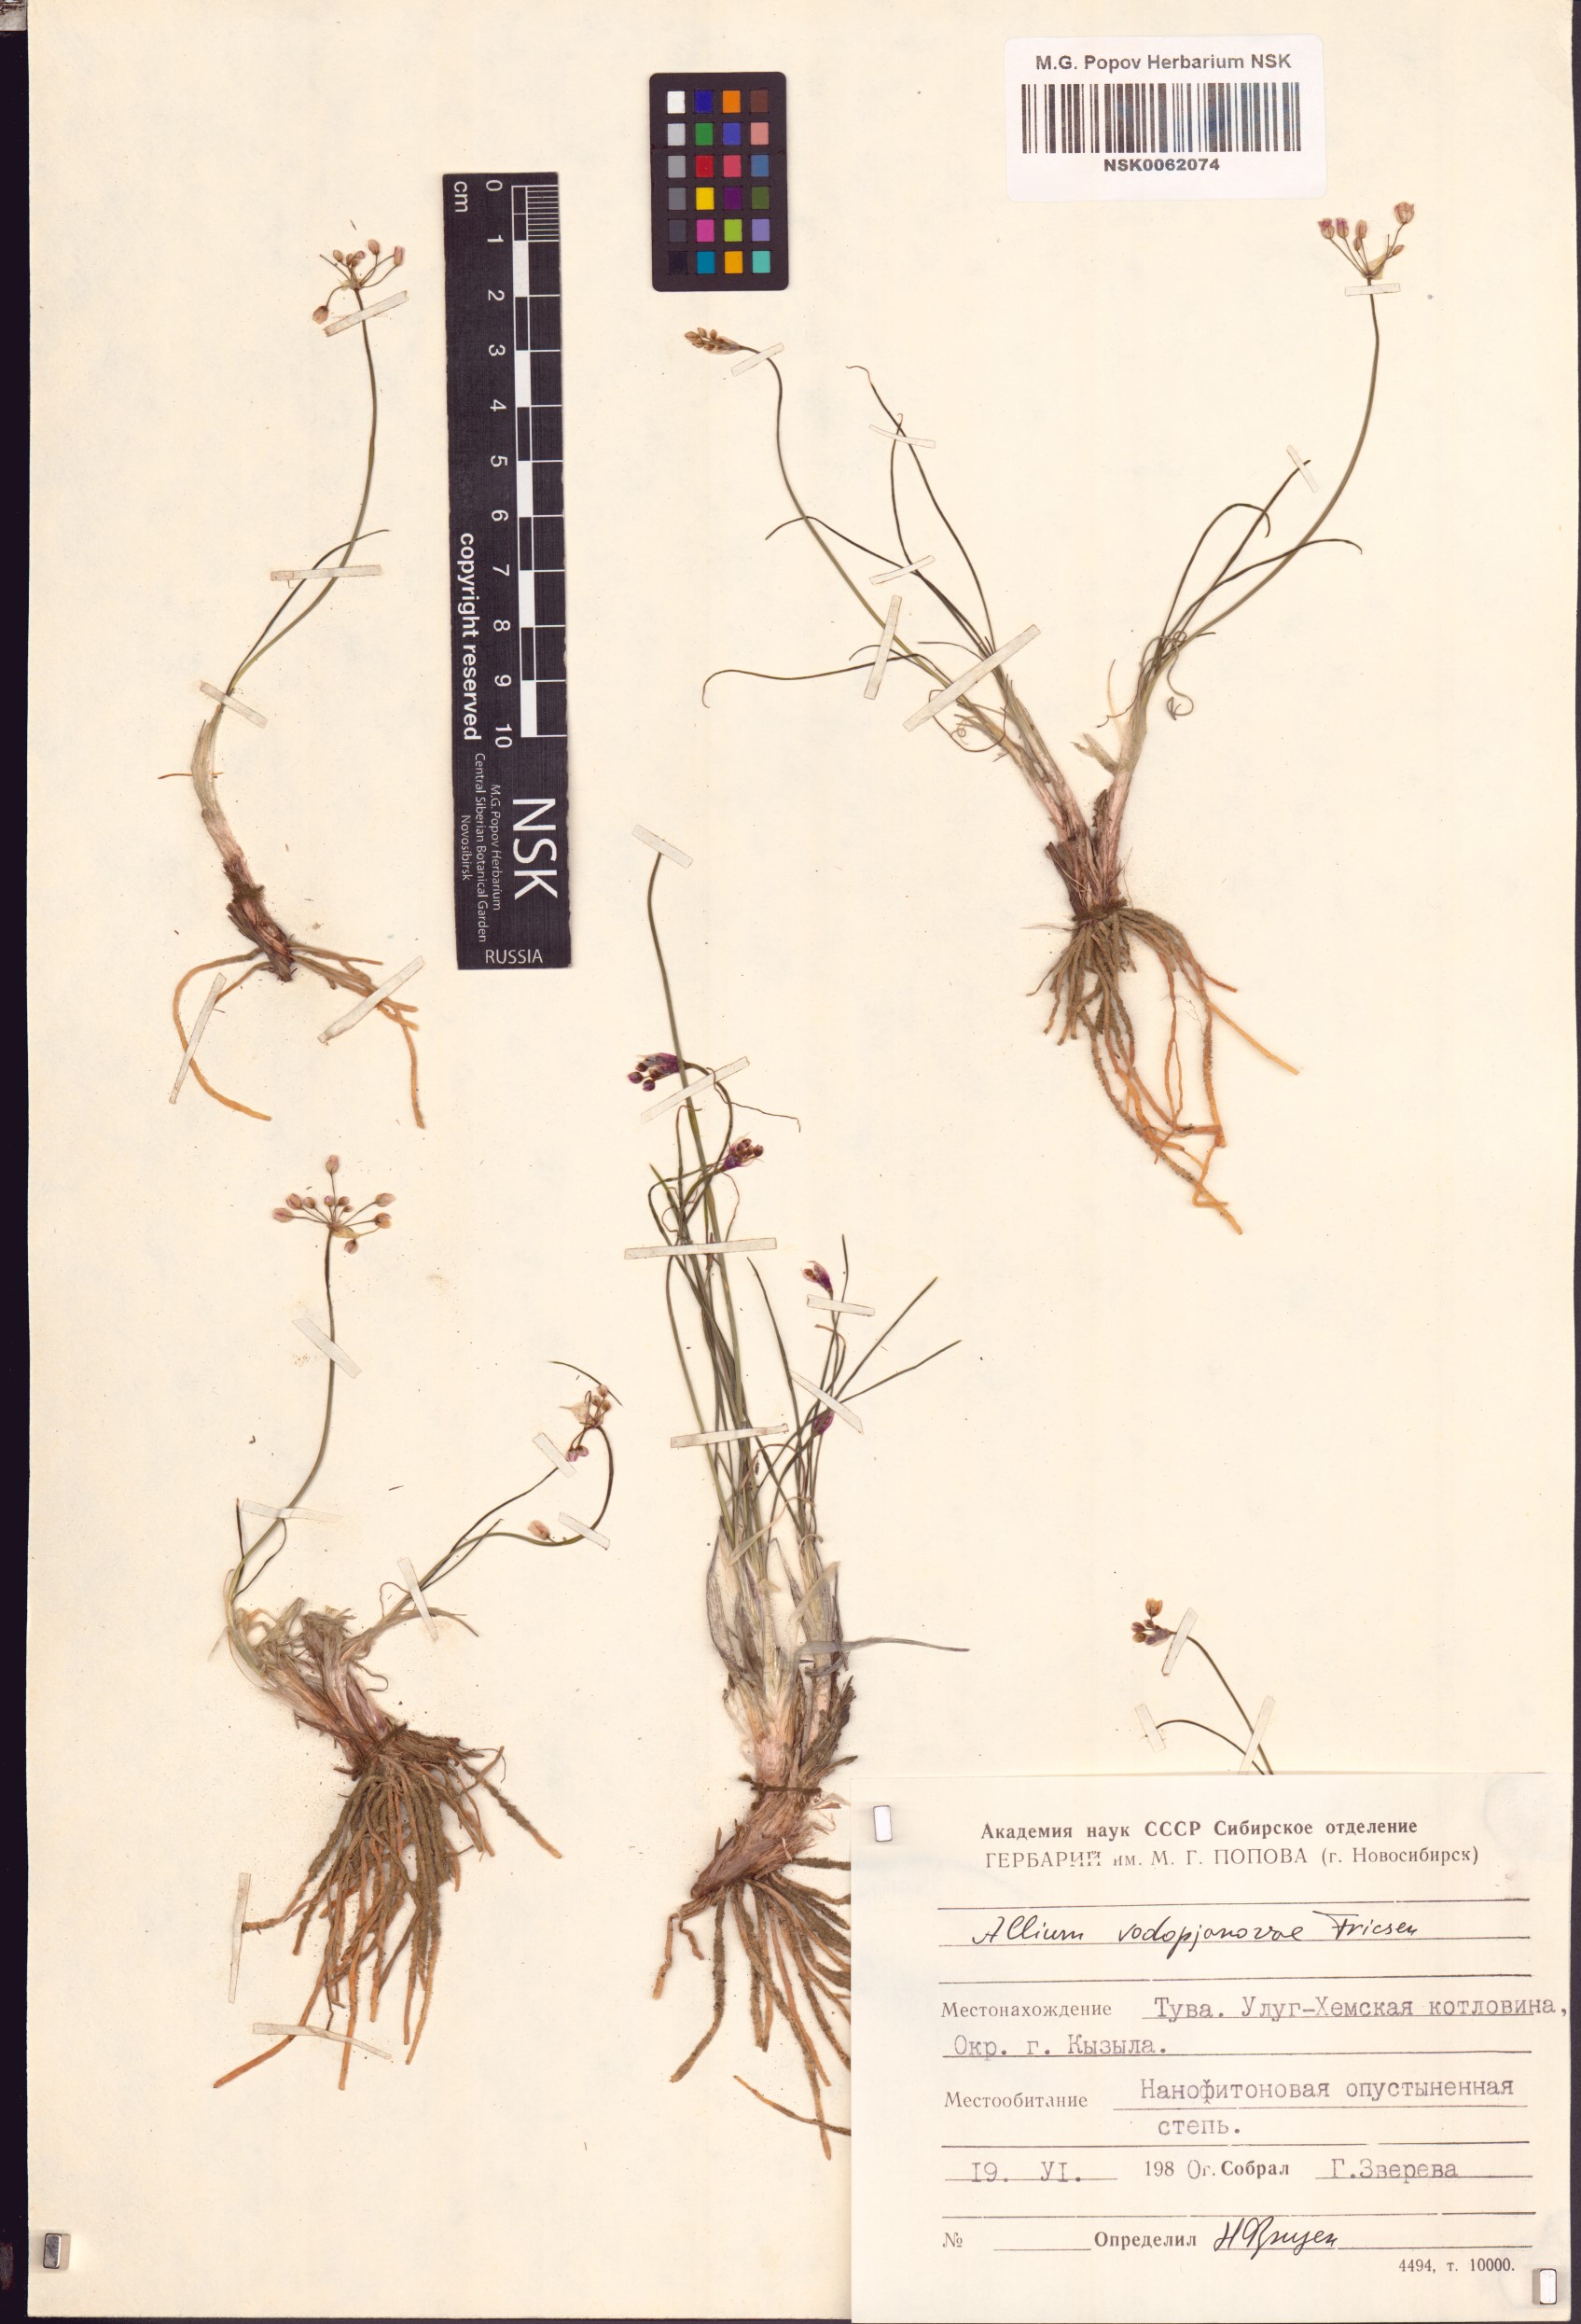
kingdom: Plantae
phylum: Tracheophyta
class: Liliopsida
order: Asparagales
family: Amaryllidaceae
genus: Allium
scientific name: Allium vodopjanovae
